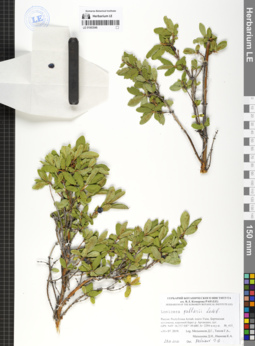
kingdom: Plantae
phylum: Tracheophyta
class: Magnoliopsida
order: Dipsacales
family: Caprifoliaceae
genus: Lonicera
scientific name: Lonicera caerulea
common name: Blue honeysuckle
